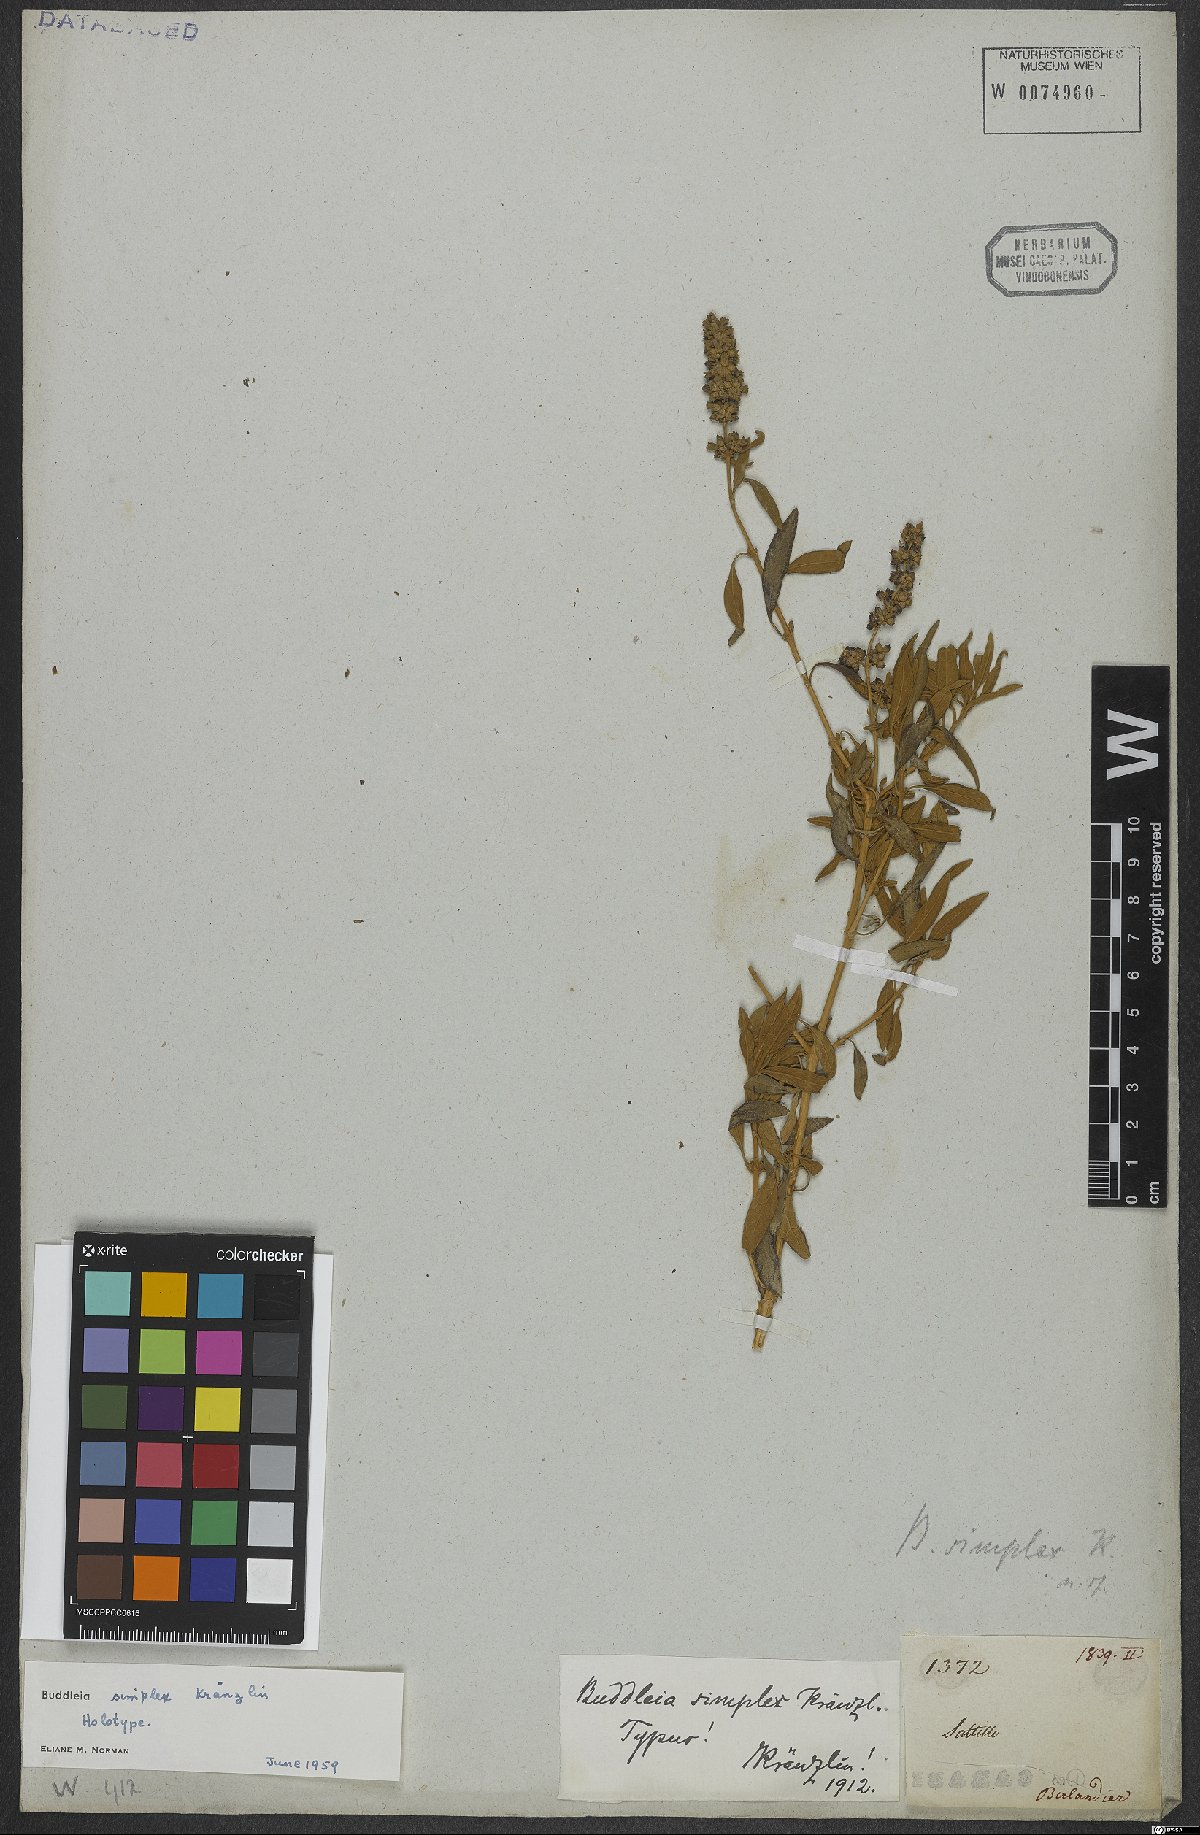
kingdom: Plantae
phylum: Tracheophyta
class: Magnoliopsida
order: Lamiales
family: Scrophulariaceae
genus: Buddleja
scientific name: Buddleja marrubiifolia
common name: Woolly butterfly-bush
